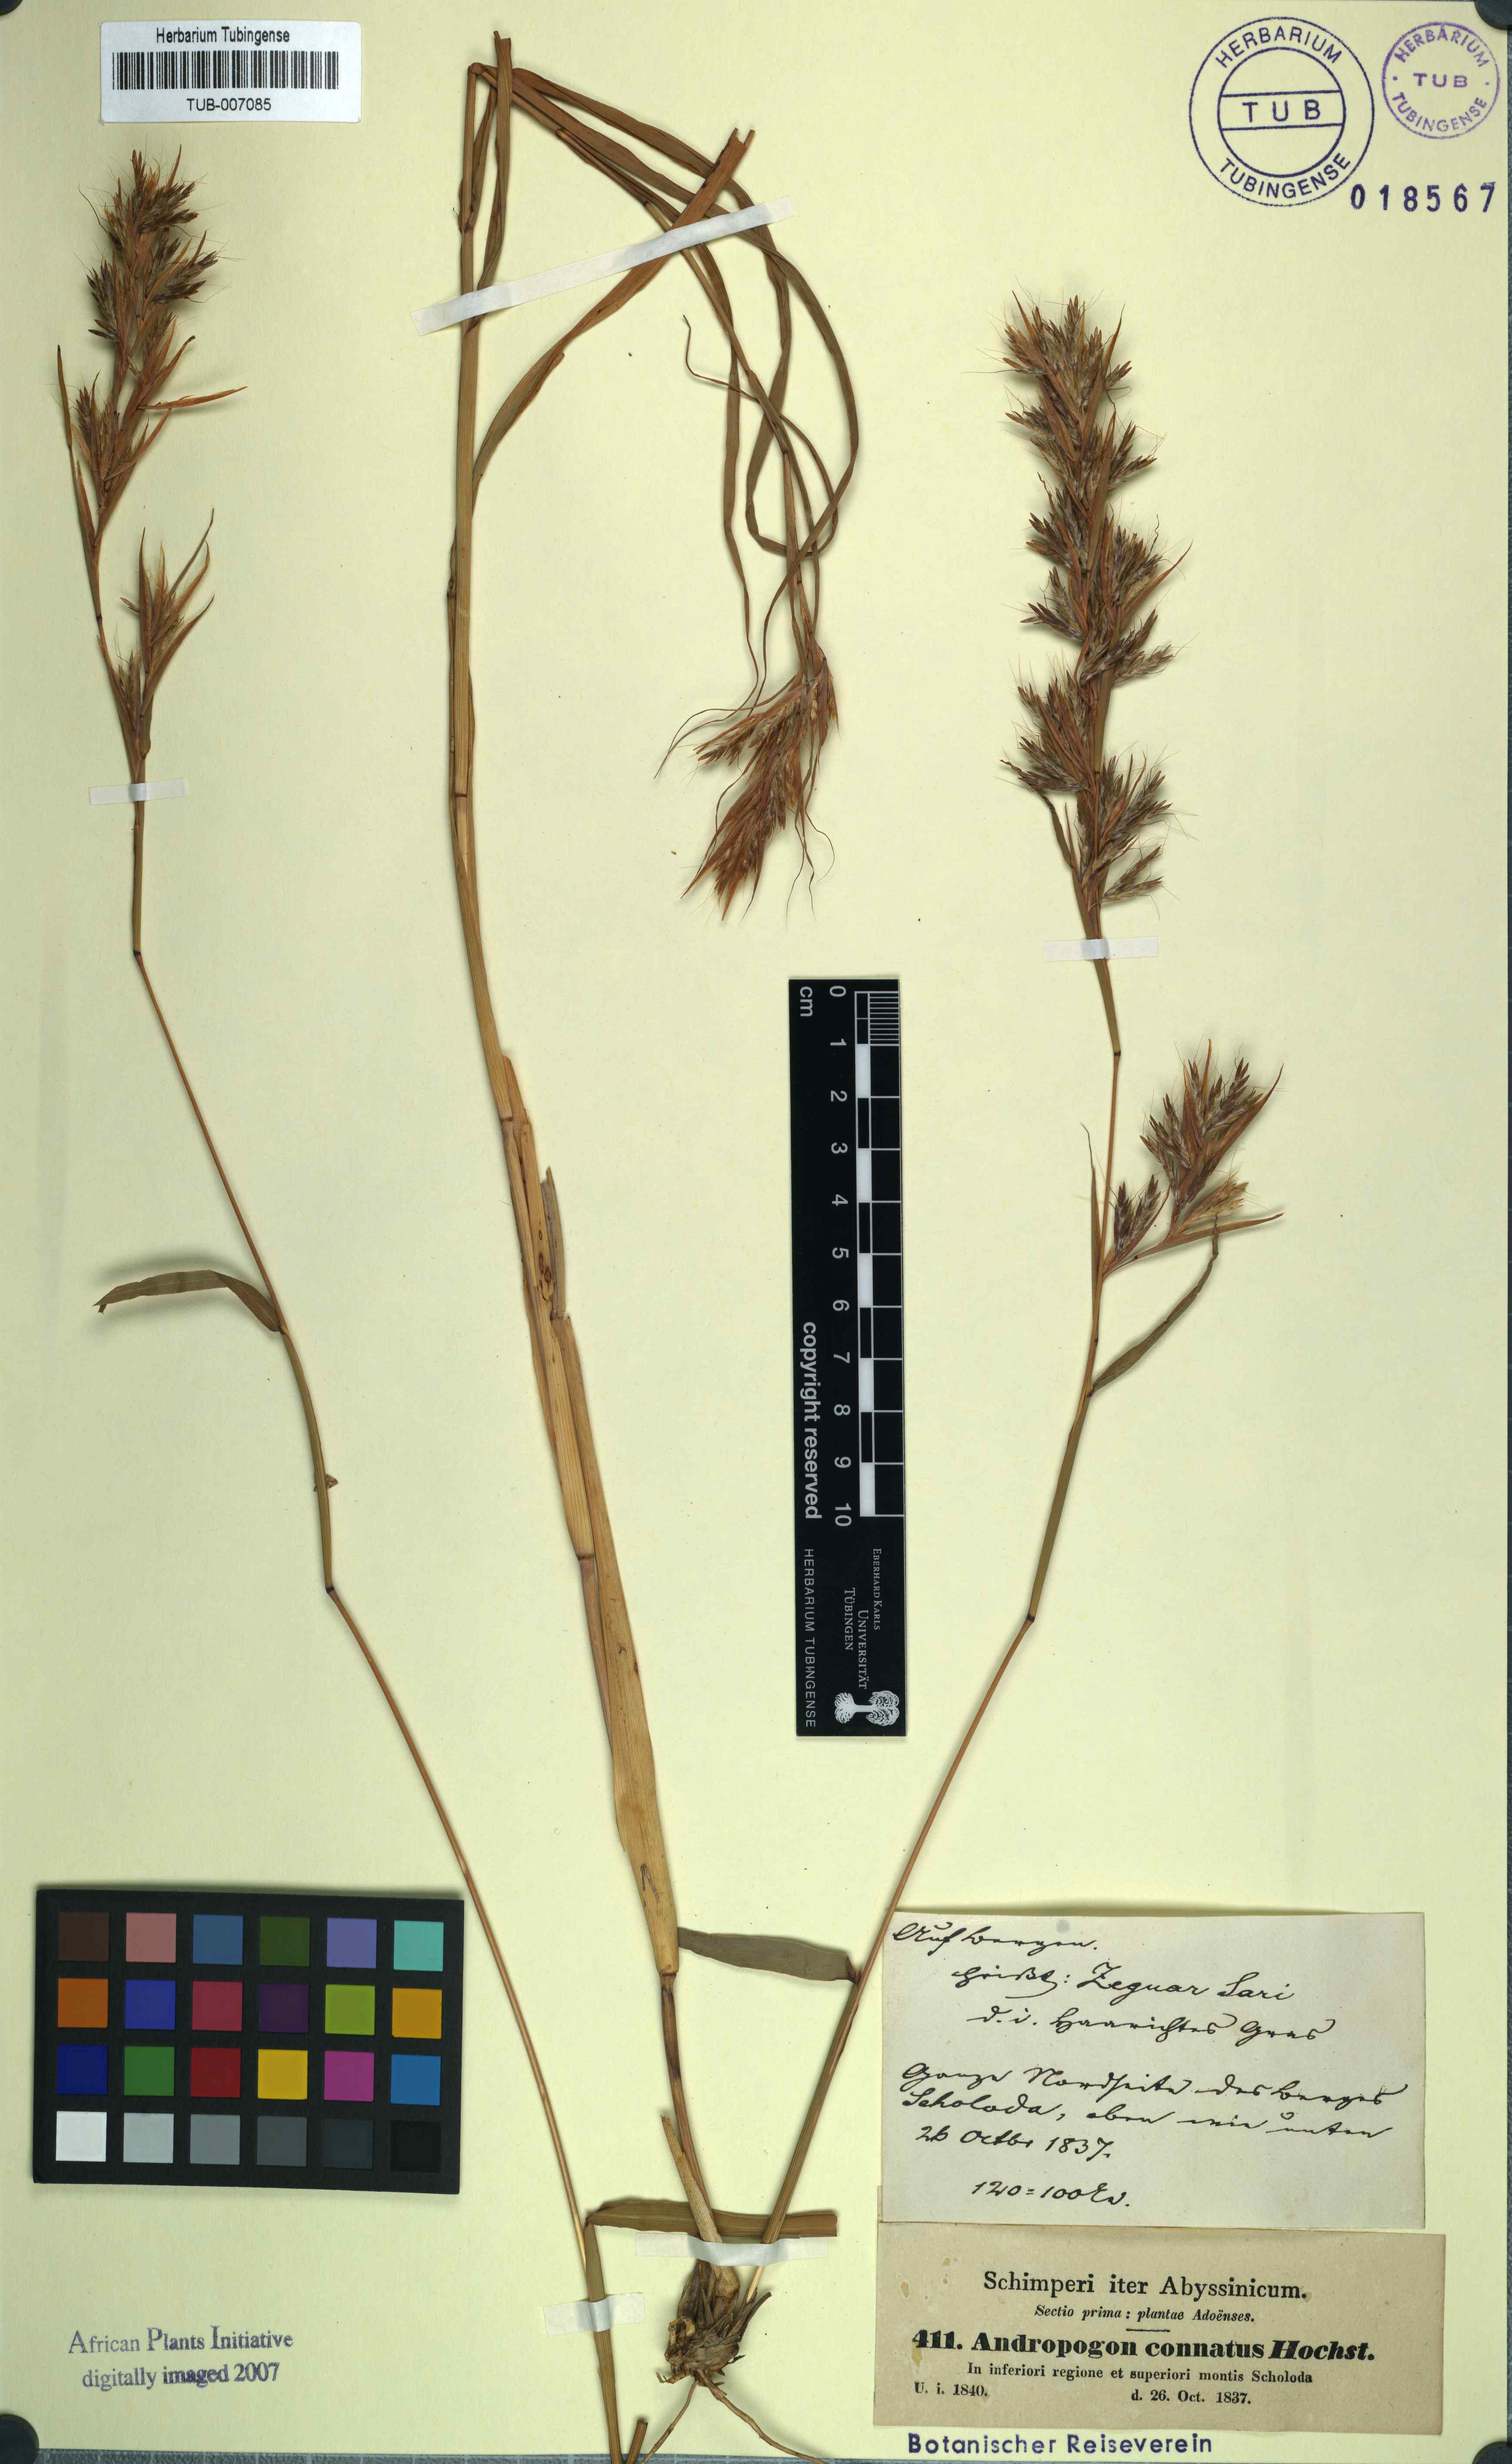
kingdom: Plantae
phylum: Tracheophyta
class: Liliopsida
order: Poales
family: Poaceae
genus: Cymbopogon
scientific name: Cymbopogon schoenanthus
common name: Geranium grass
